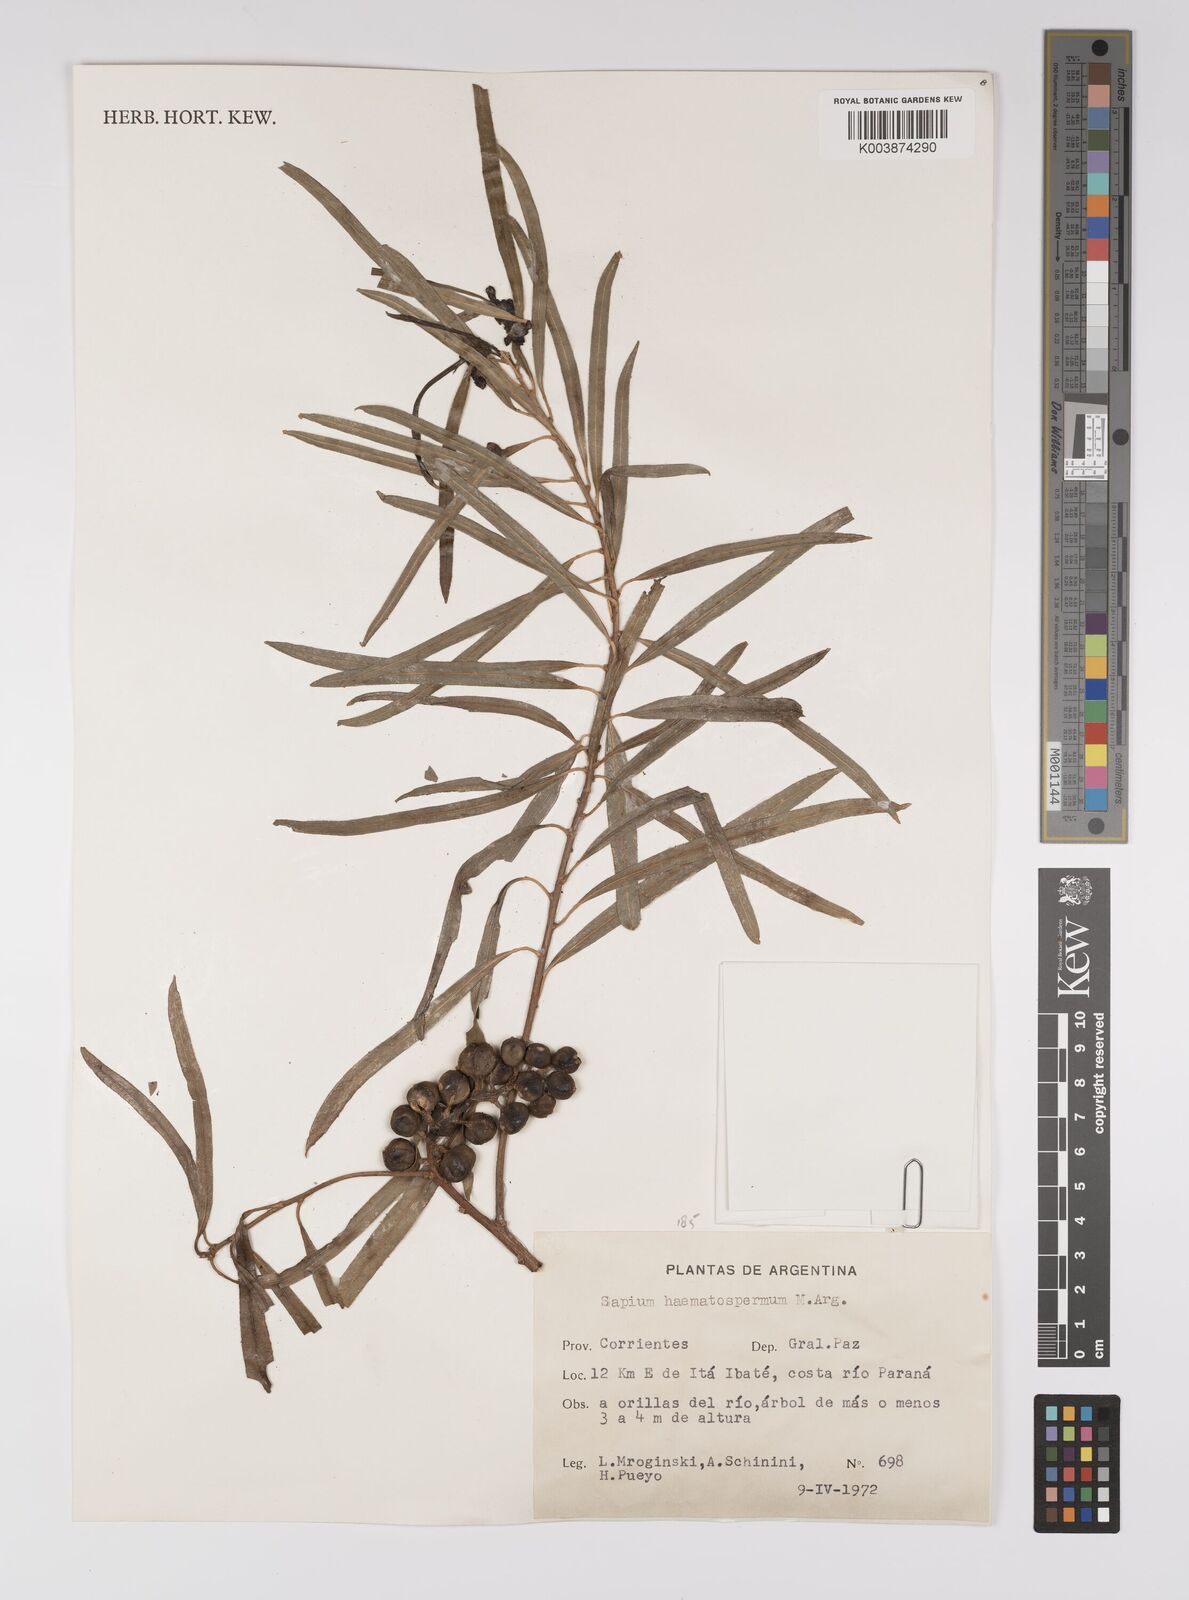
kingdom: Plantae
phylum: Tracheophyta
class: Magnoliopsida
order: Malpighiales
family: Euphorbiaceae
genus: Sapium
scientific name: Sapium haematospermum
